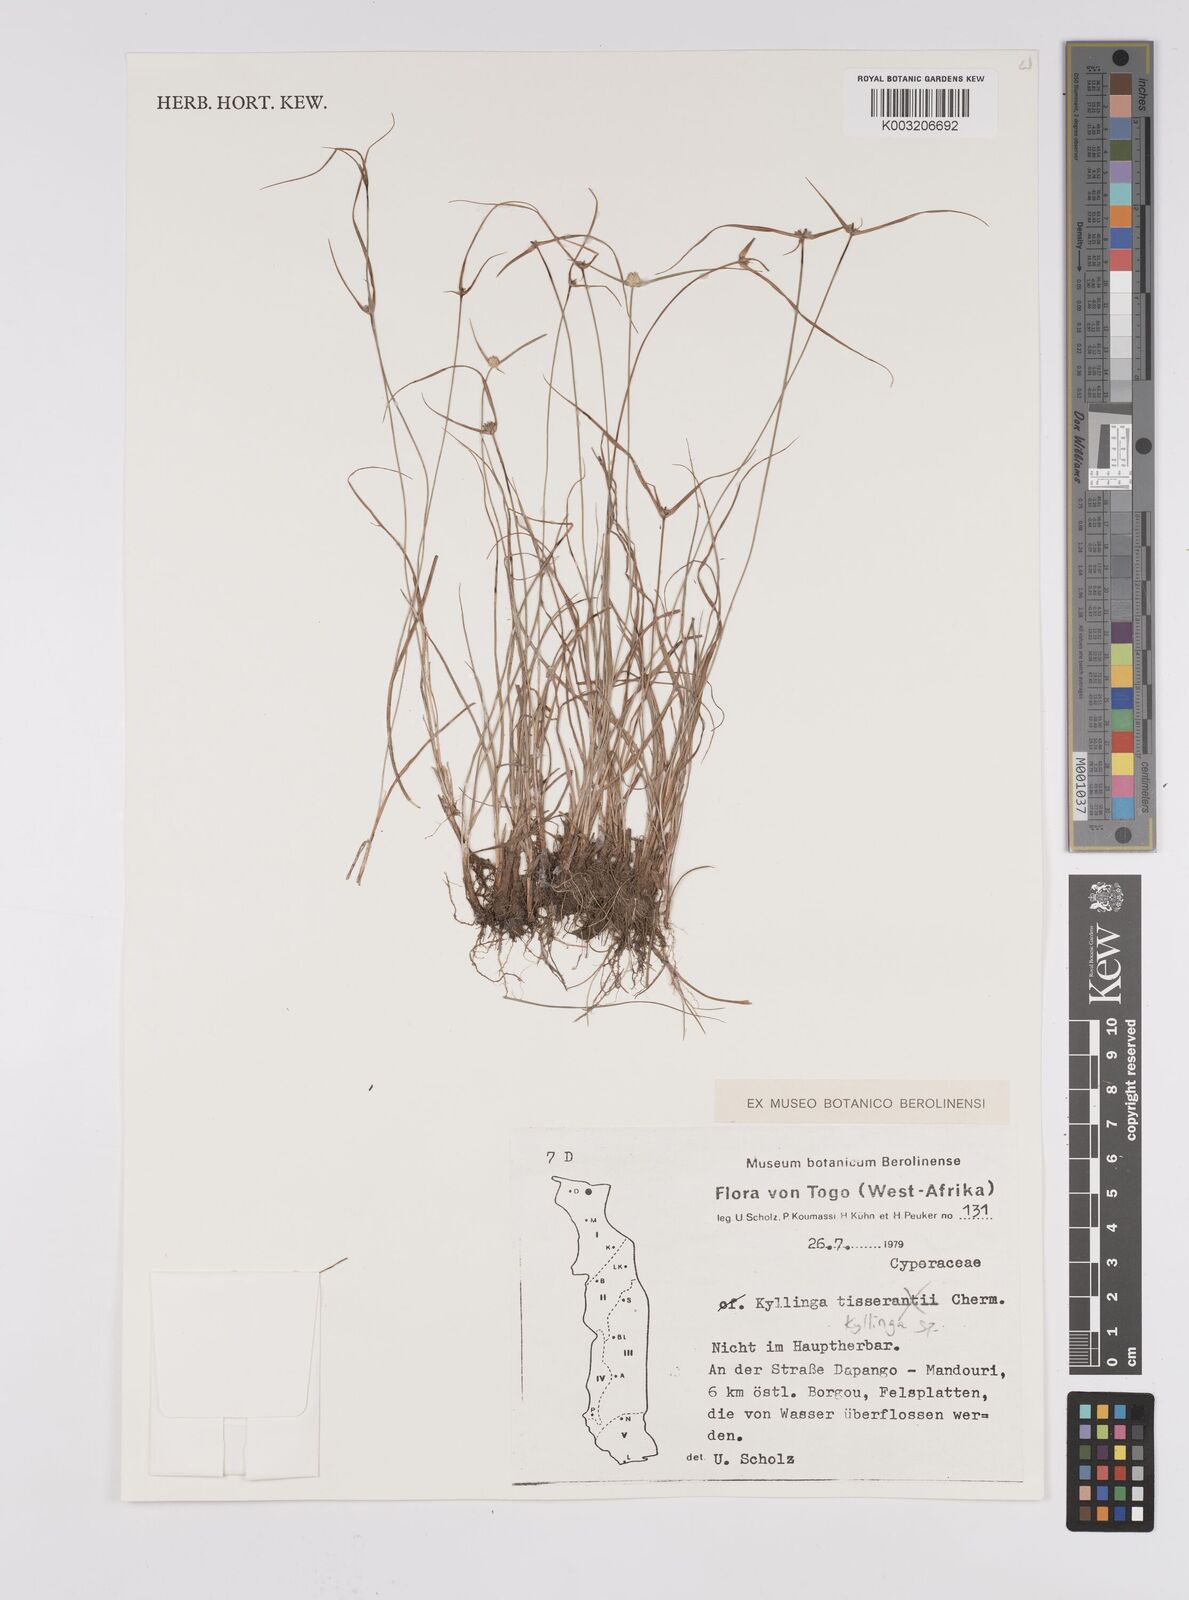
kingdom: Plantae
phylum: Tracheophyta
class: Liliopsida
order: Poales
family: Cyperaceae
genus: Cyperus
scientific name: Cyperus
